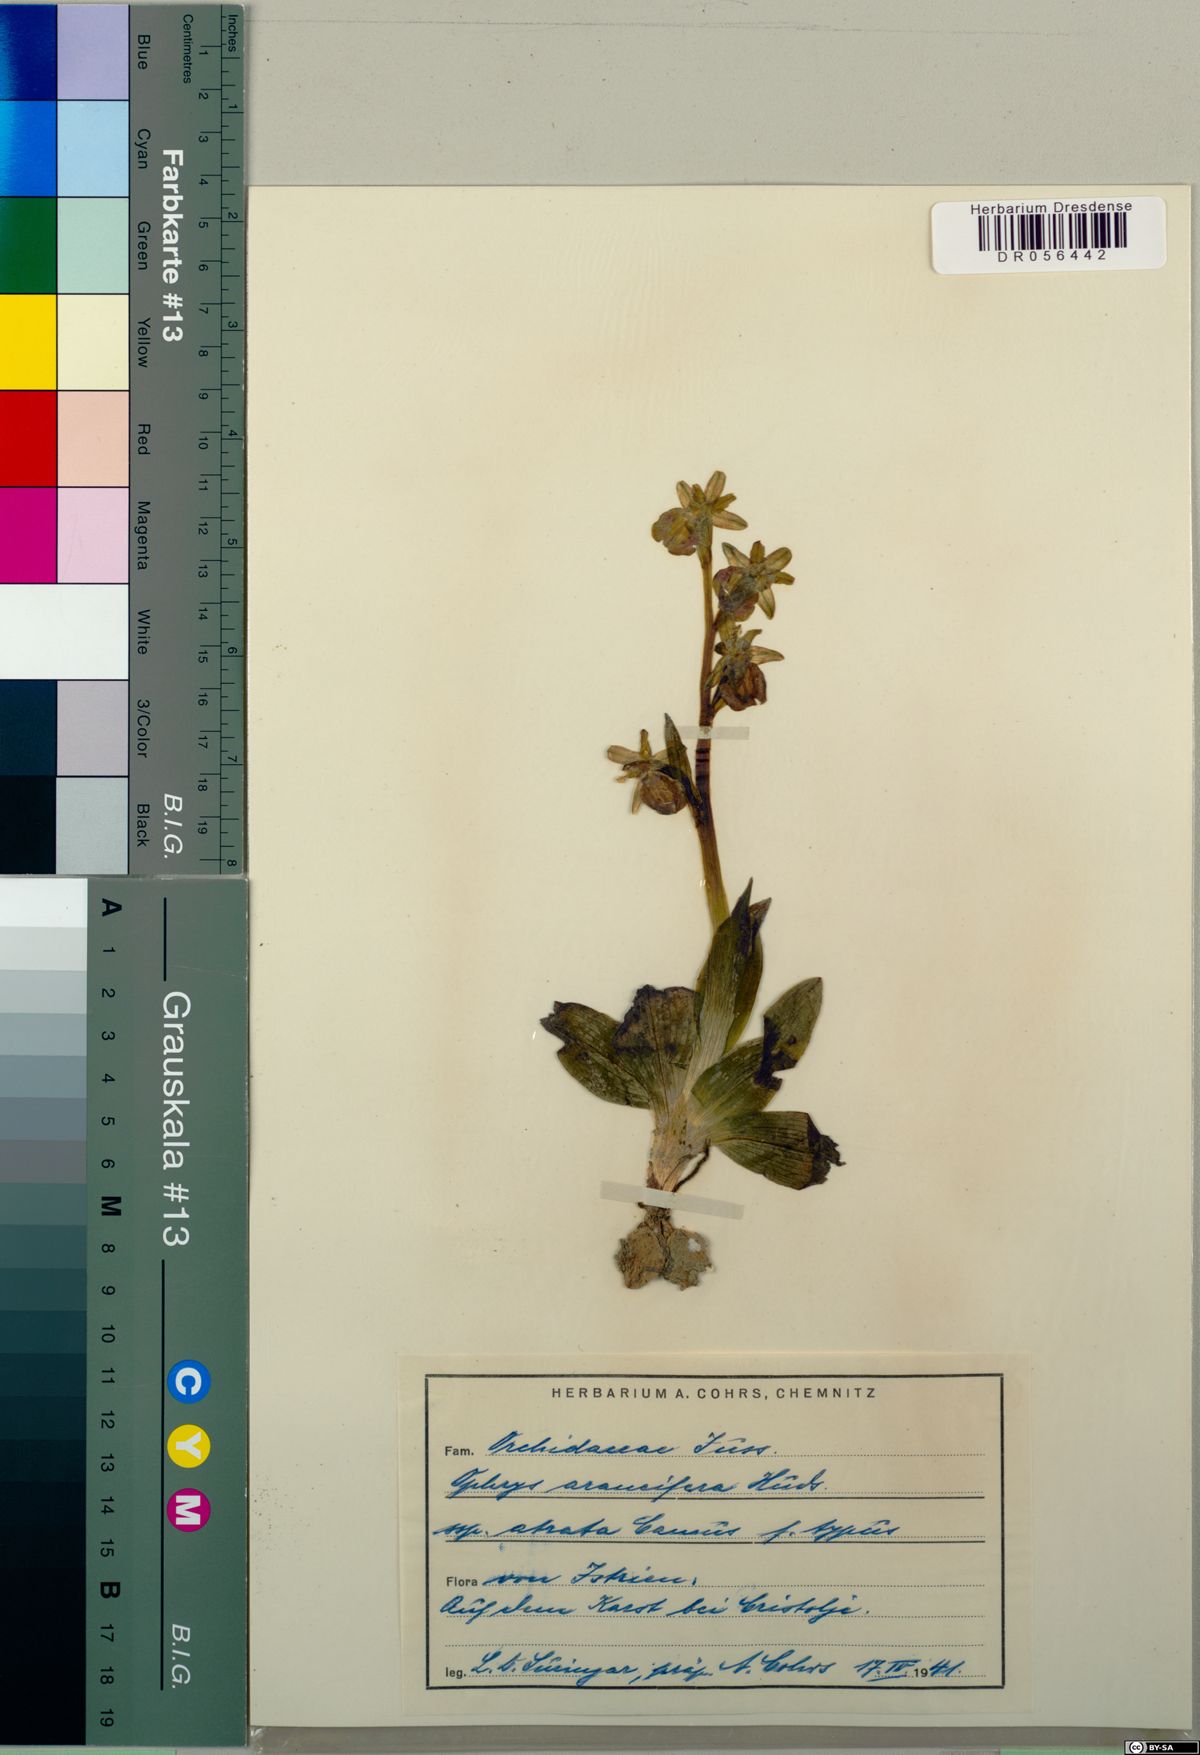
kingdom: Plantae
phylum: Tracheophyta
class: Liliopsida
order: Asparagales
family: Orchidaceae
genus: Ophrys
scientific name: Ophrys sphegodes
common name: Early spider-orchid
